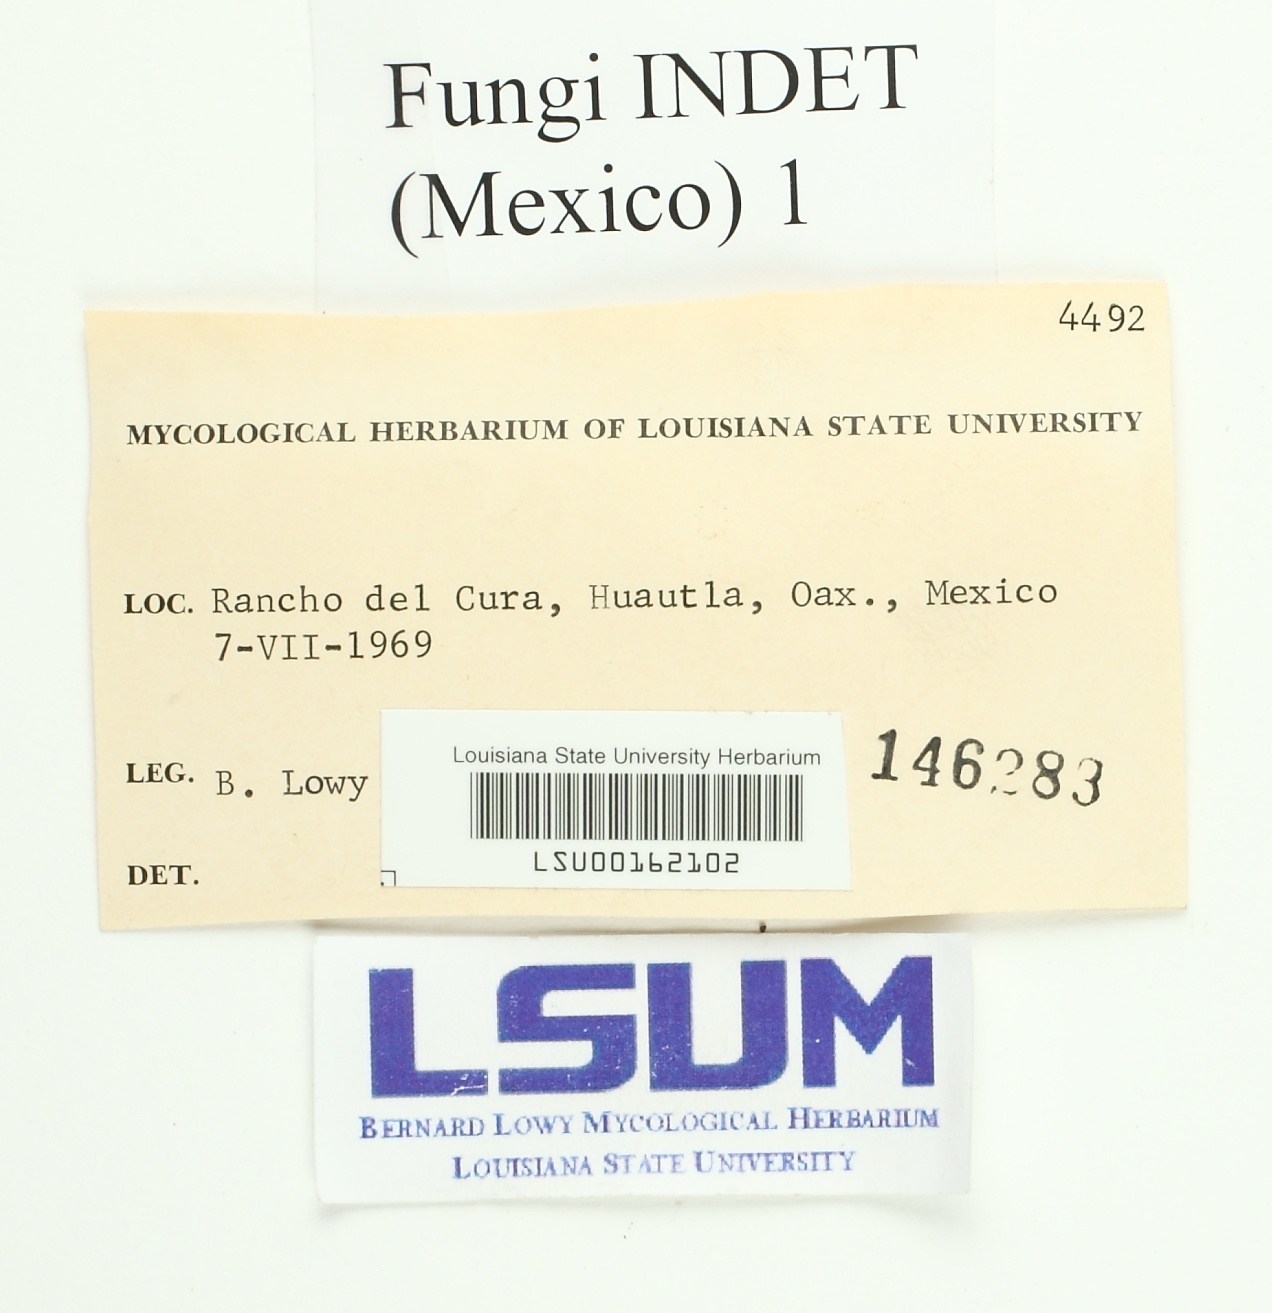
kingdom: Fungi
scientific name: Fungi
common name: Fungi
